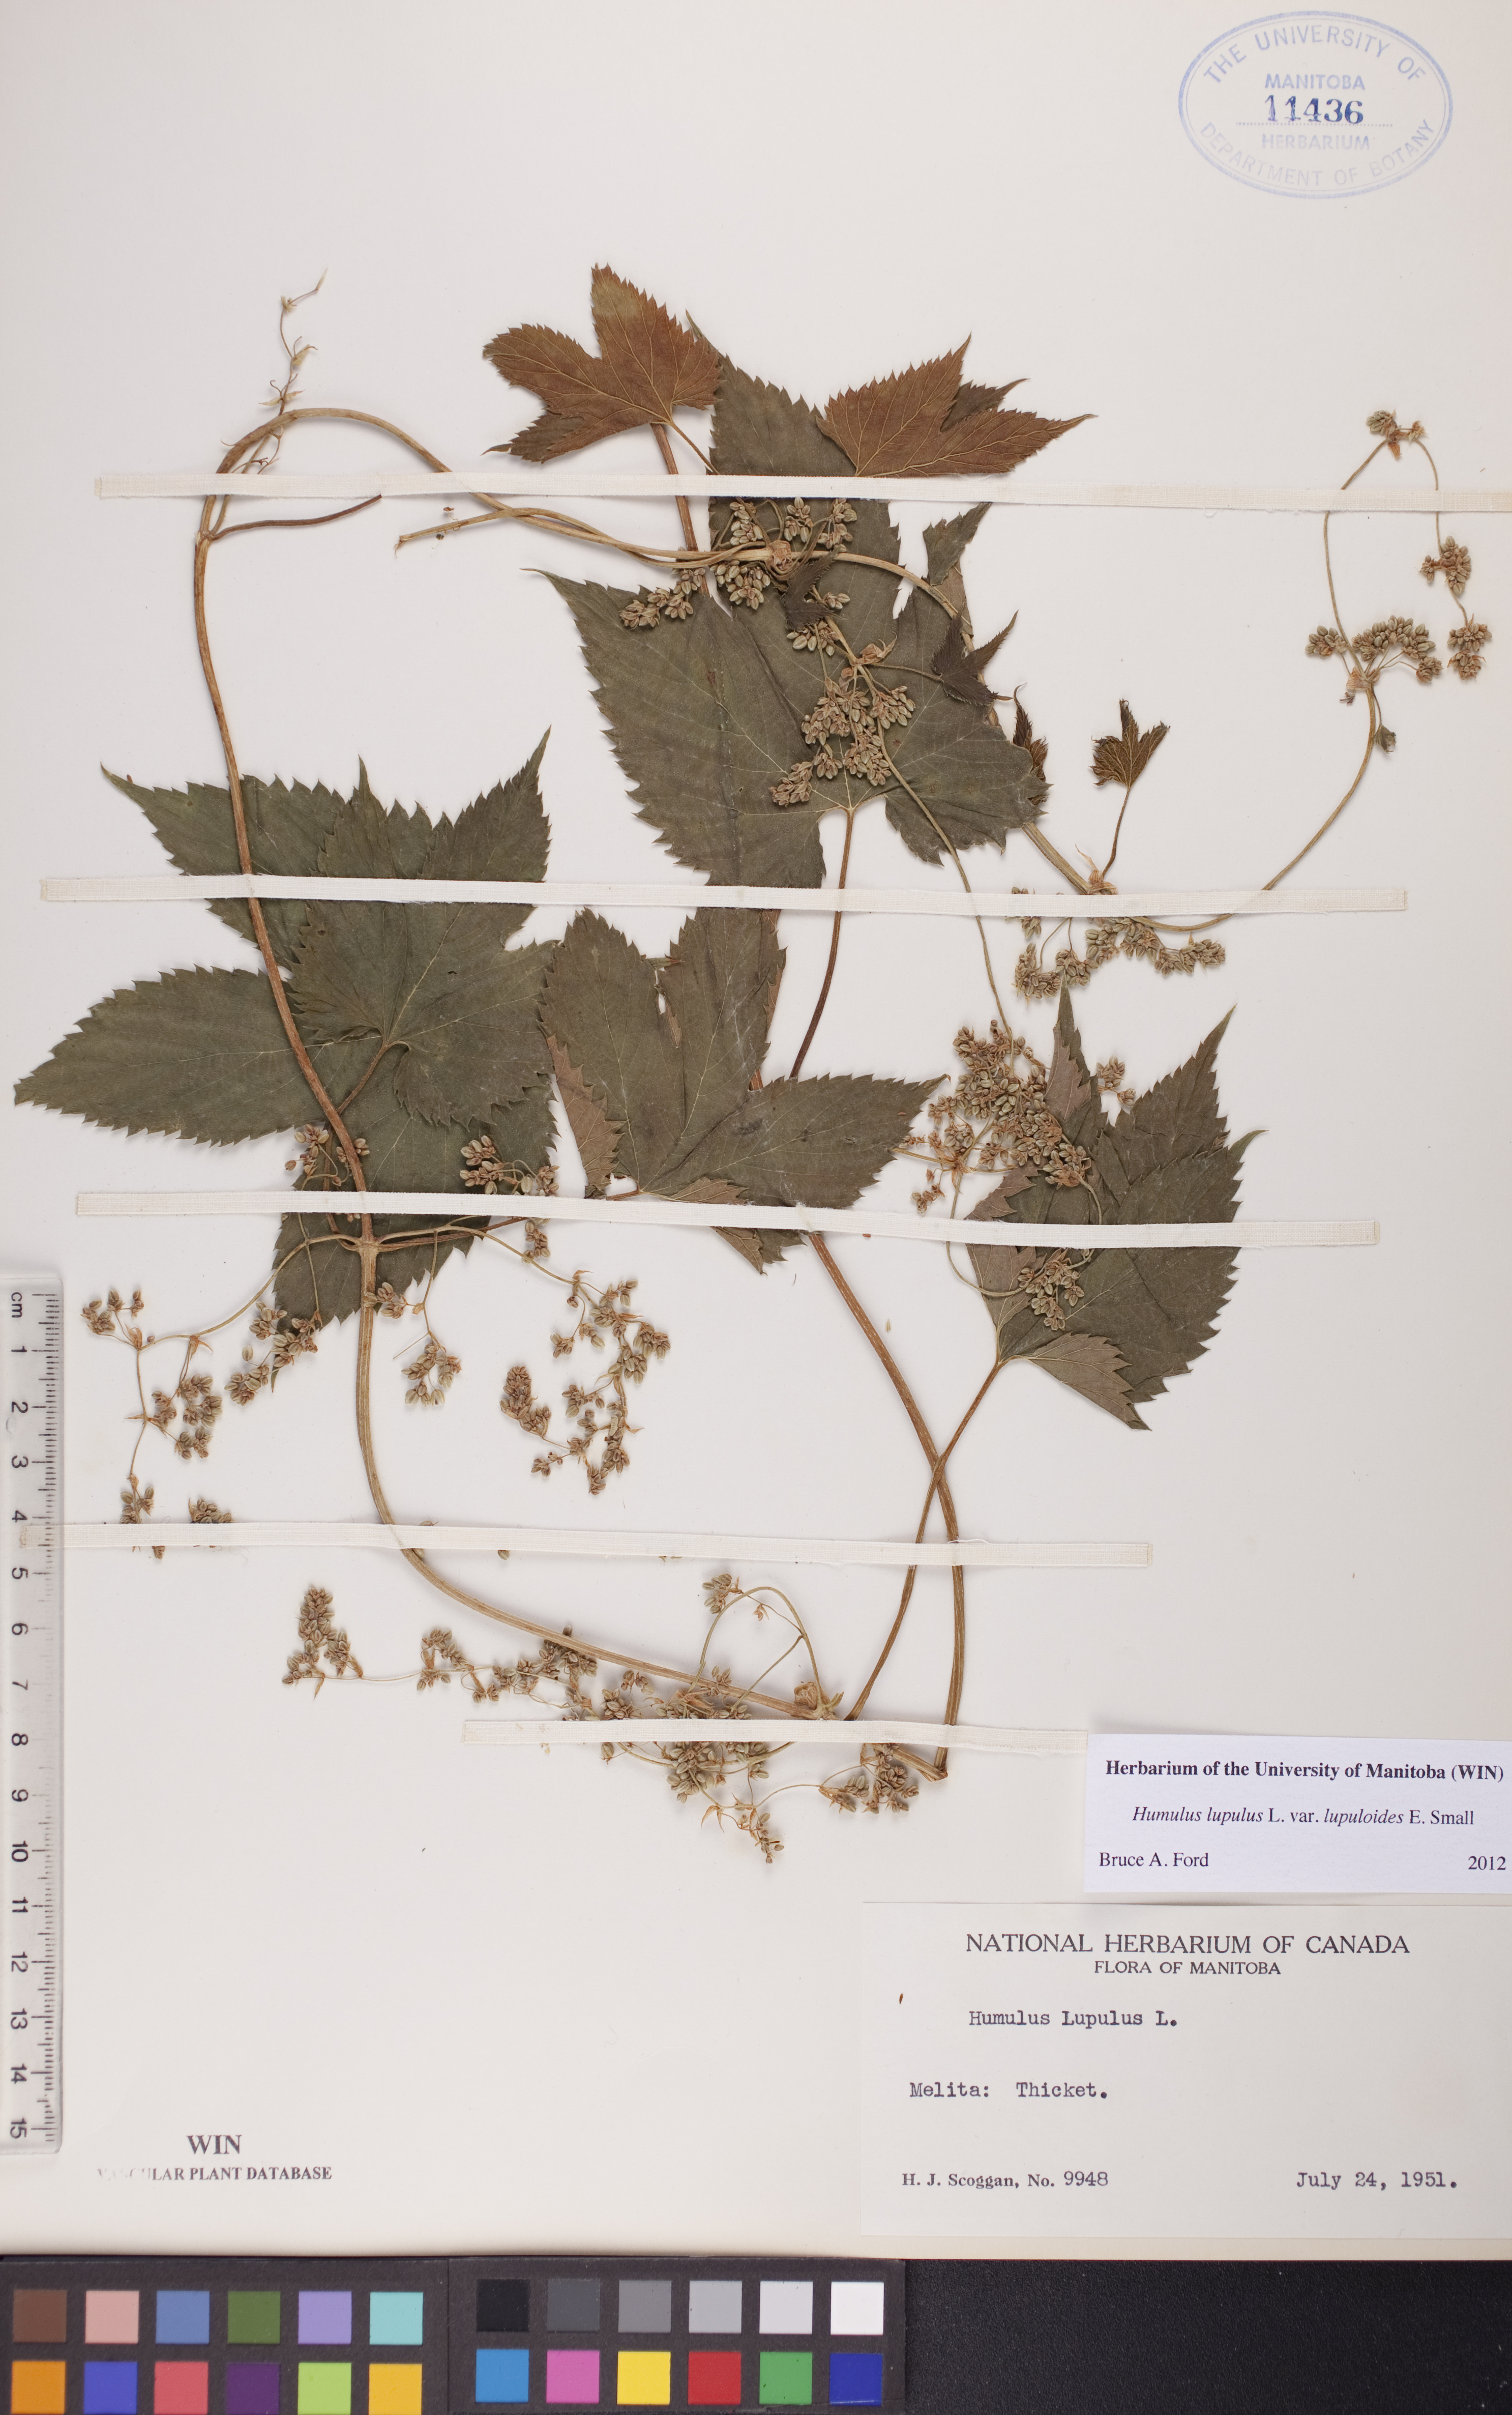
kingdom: Plantae
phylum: Tracheophyta
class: Magnoliopsida
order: Rosales
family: Cannabaceae
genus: Humulus
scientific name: Humulus americanus
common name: American hops
